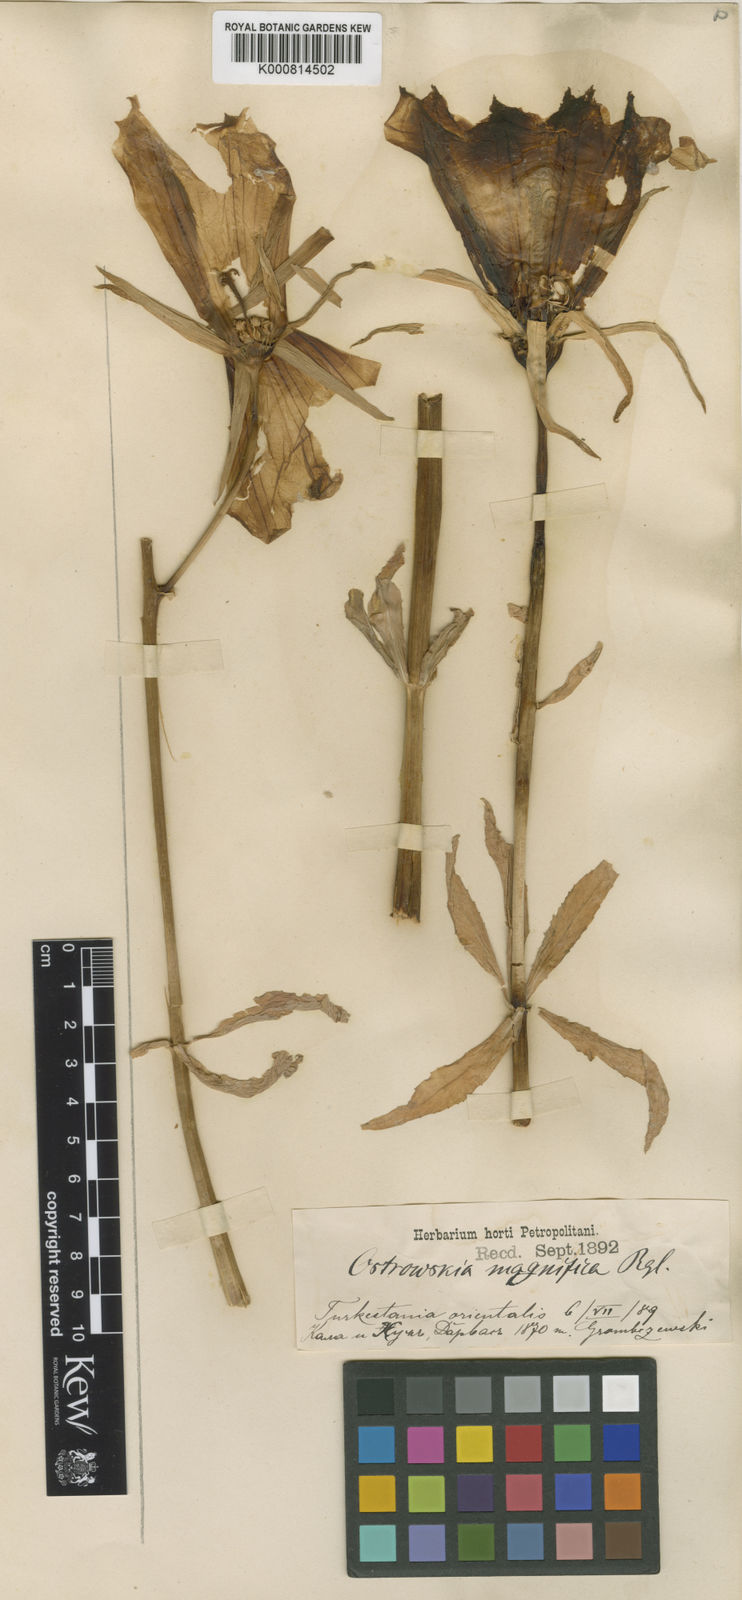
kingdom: Plantae
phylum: Tracheophyta
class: Magnoliopsida
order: Asterales
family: Campanulaceae
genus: Ostrowskia
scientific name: Ostrowskia magnifica
